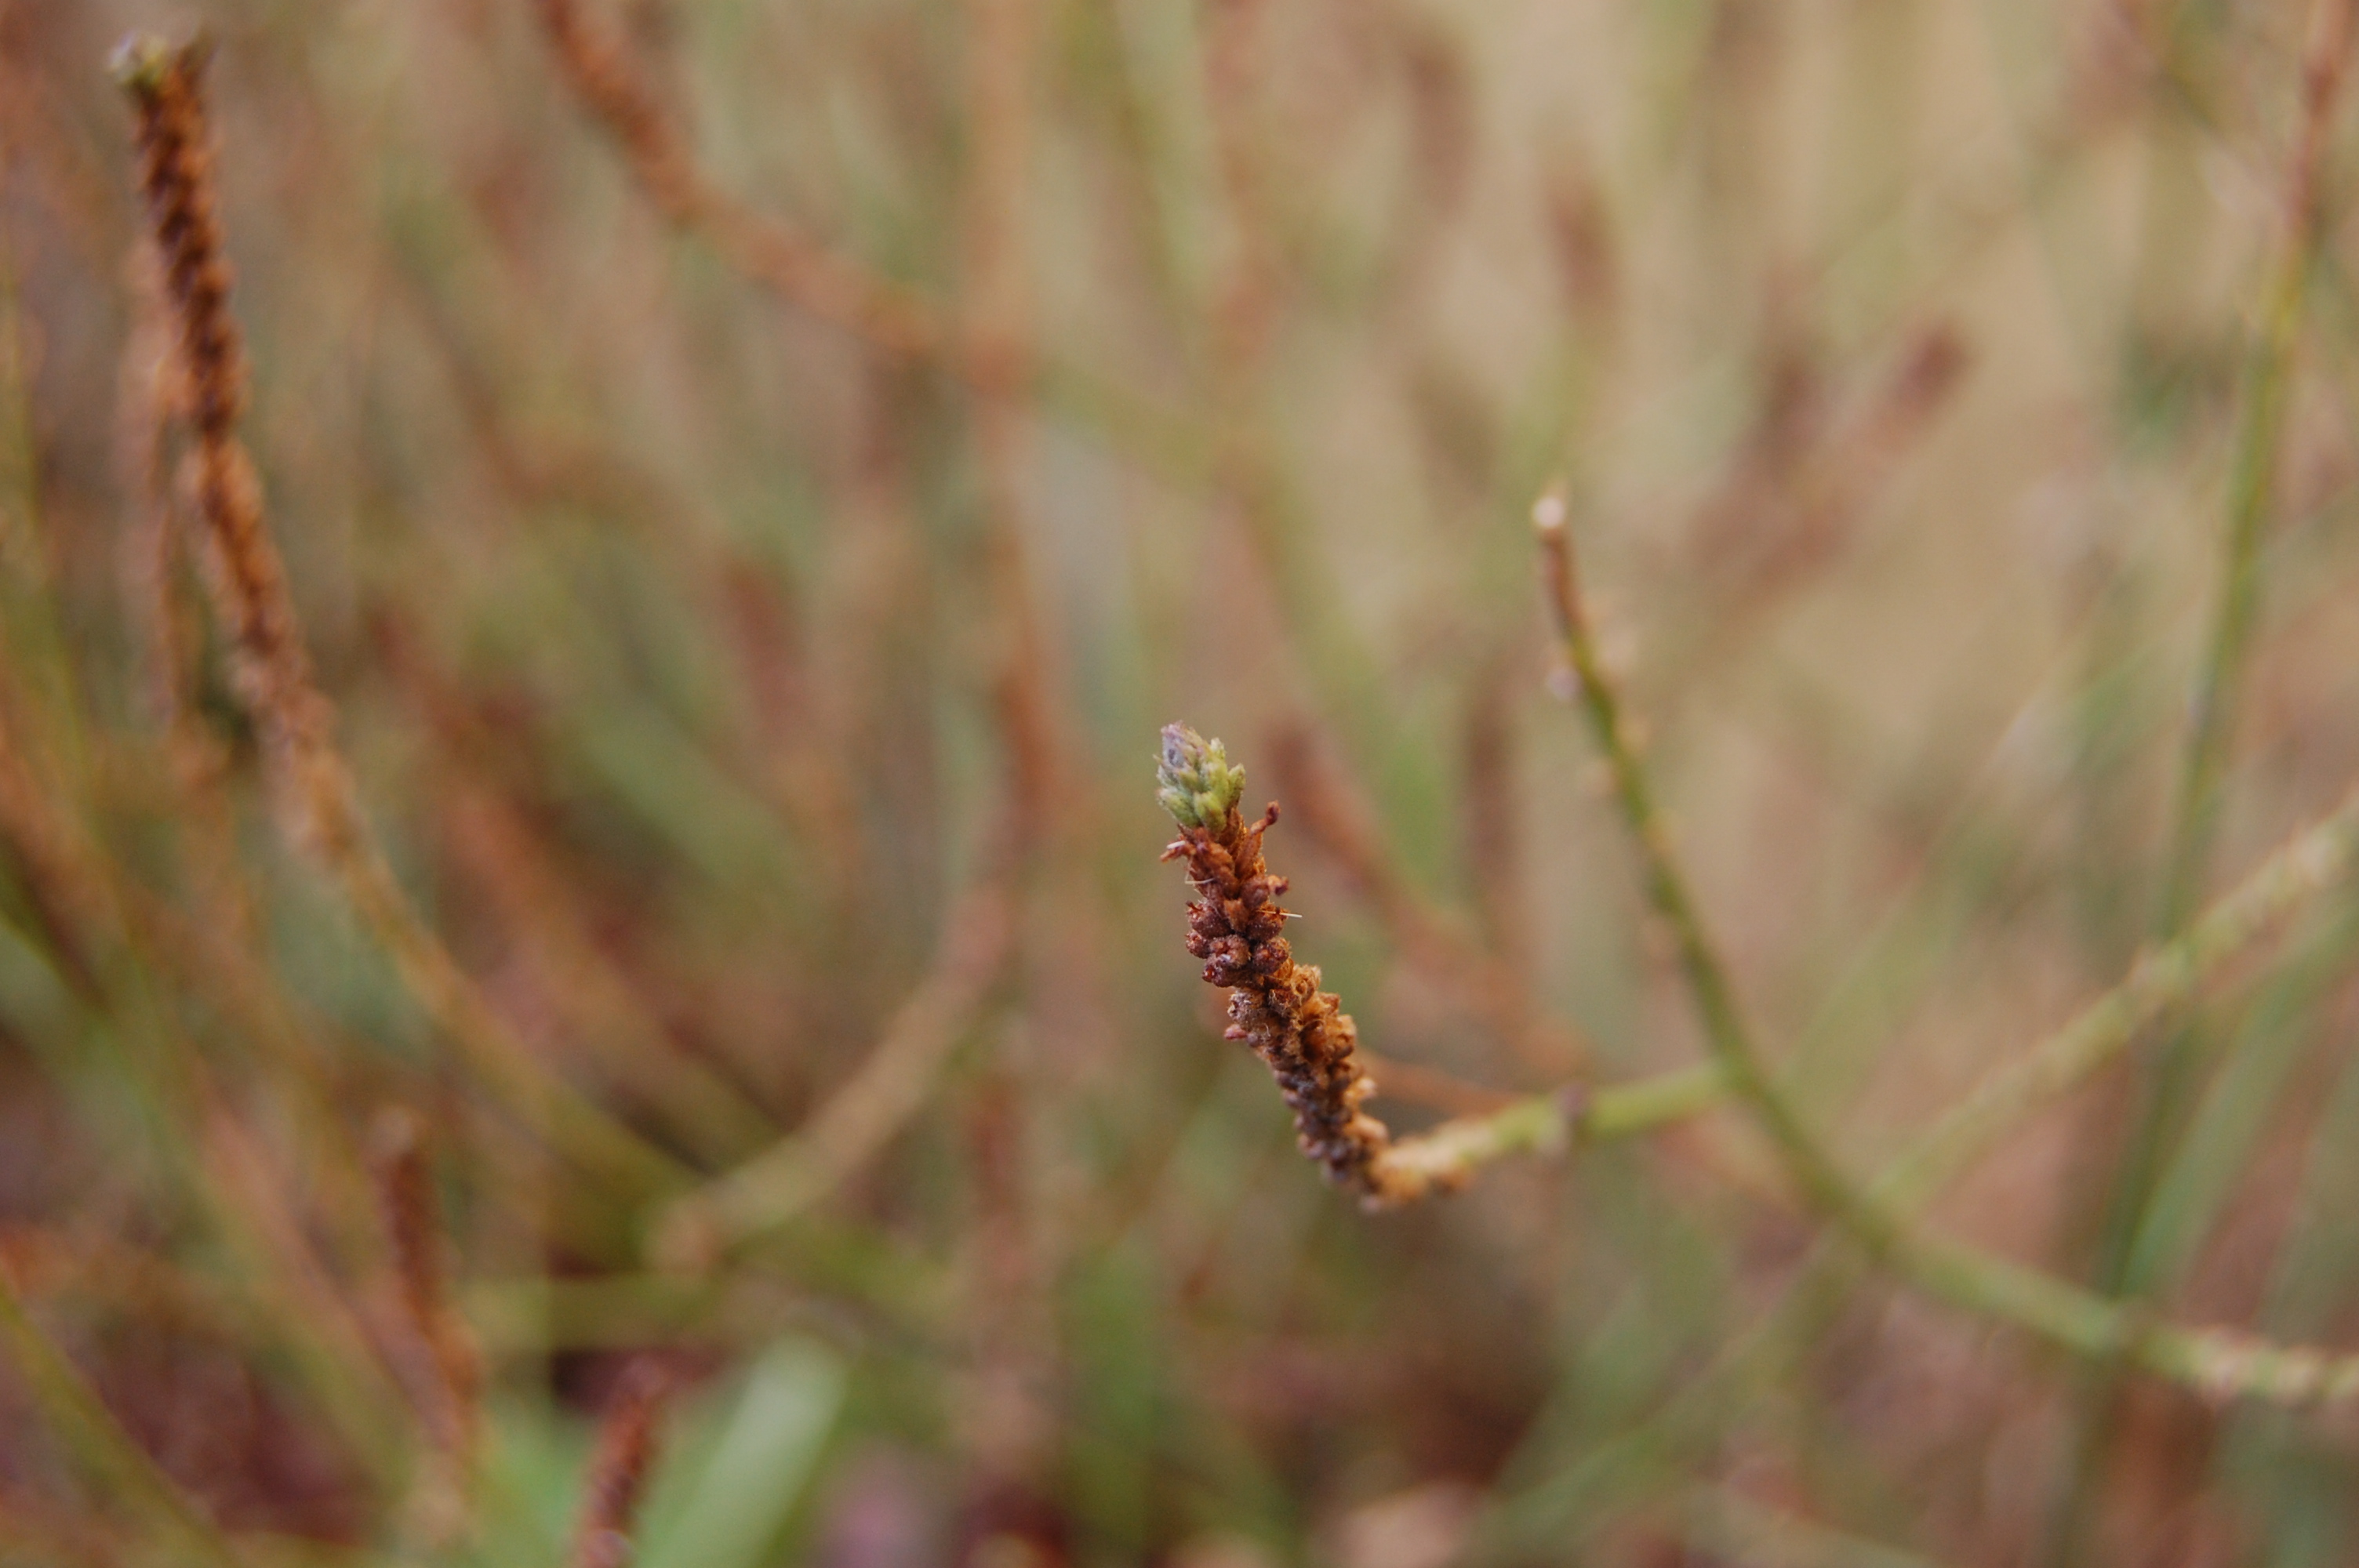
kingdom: Plantae
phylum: Tracheophyta
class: Magnoliopsida
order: Lamiales
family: Verbenaceae
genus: Verbena
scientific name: Verbena officinalis
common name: Vervain
